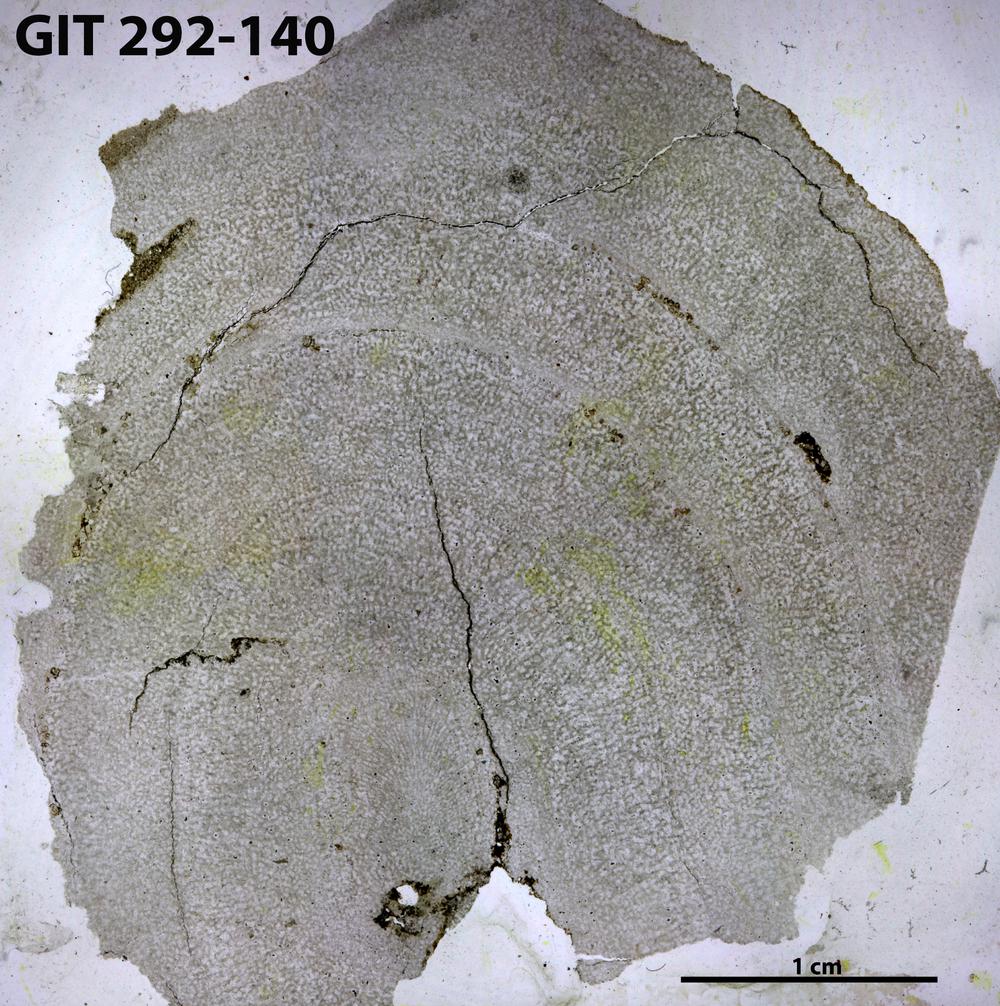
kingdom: Animalia
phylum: Porifera
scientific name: Porifera
